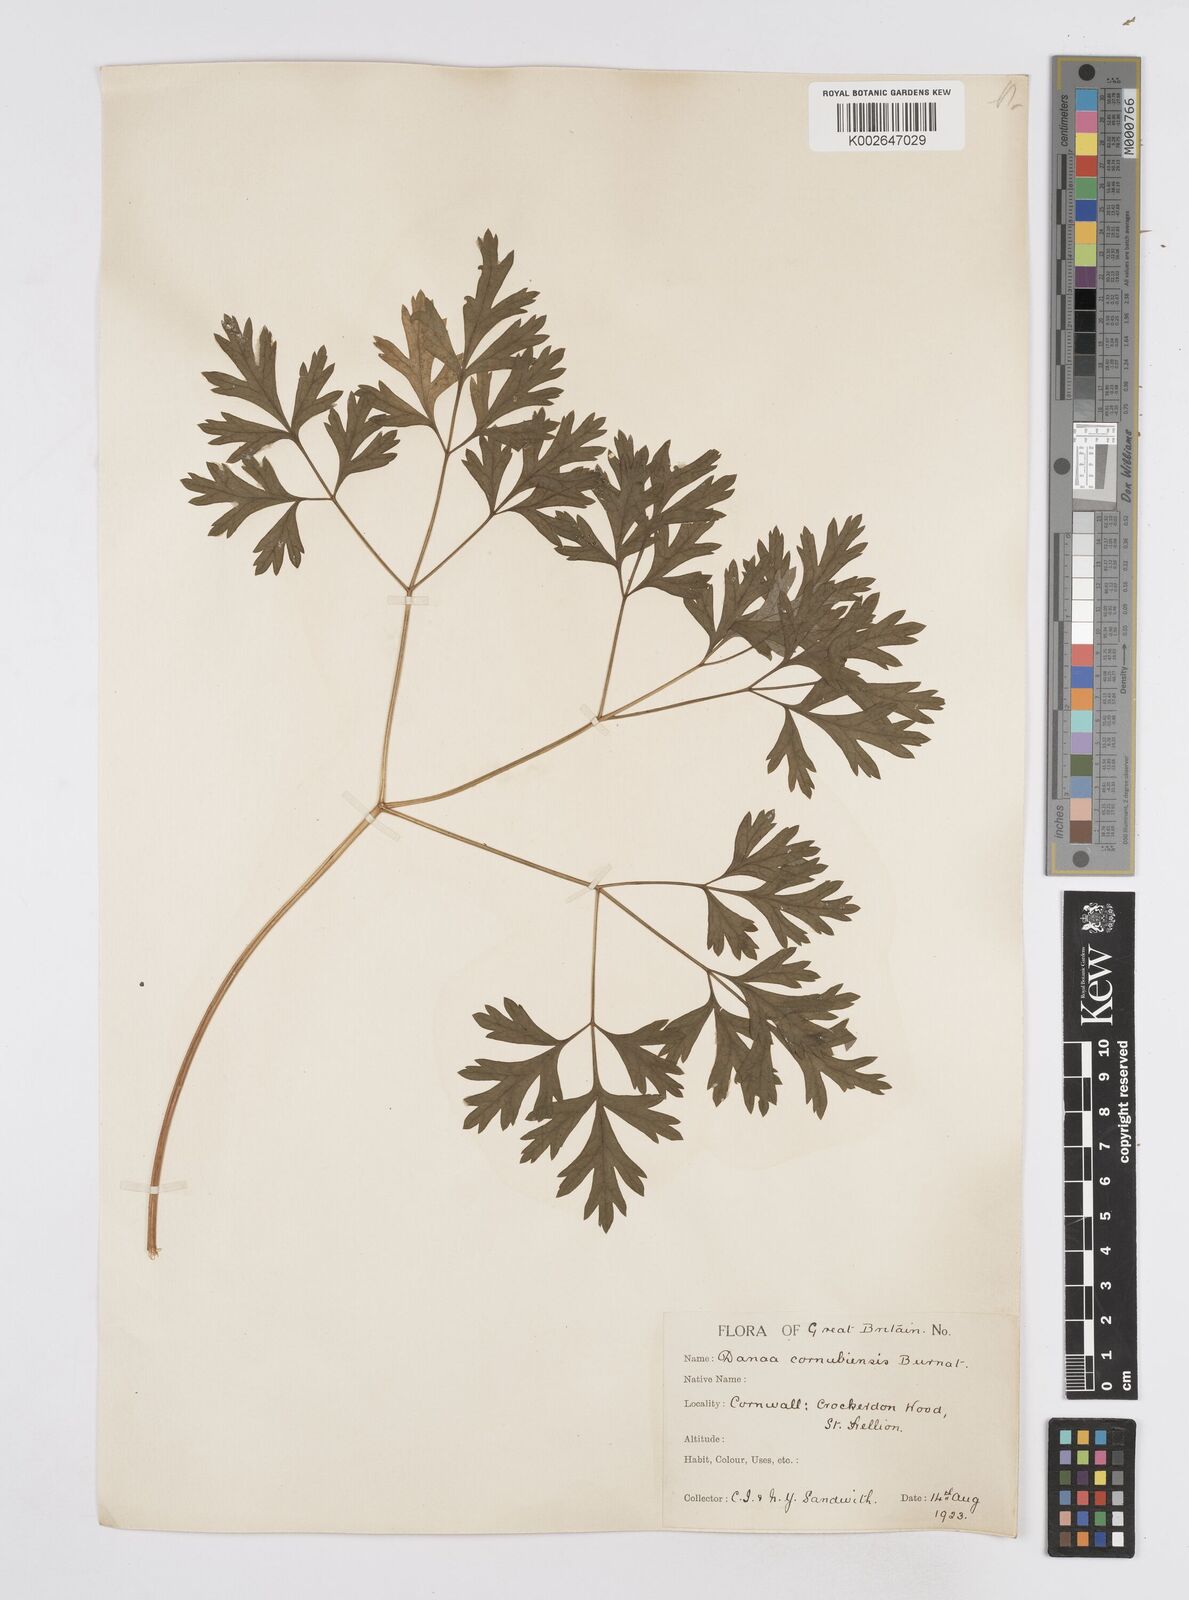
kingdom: Plantae
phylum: Tracheophyta
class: Magnoliopsida
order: Apiales
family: Apiaceae
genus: Physospermum
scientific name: Physospermum cornubiense
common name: Bladderseed
